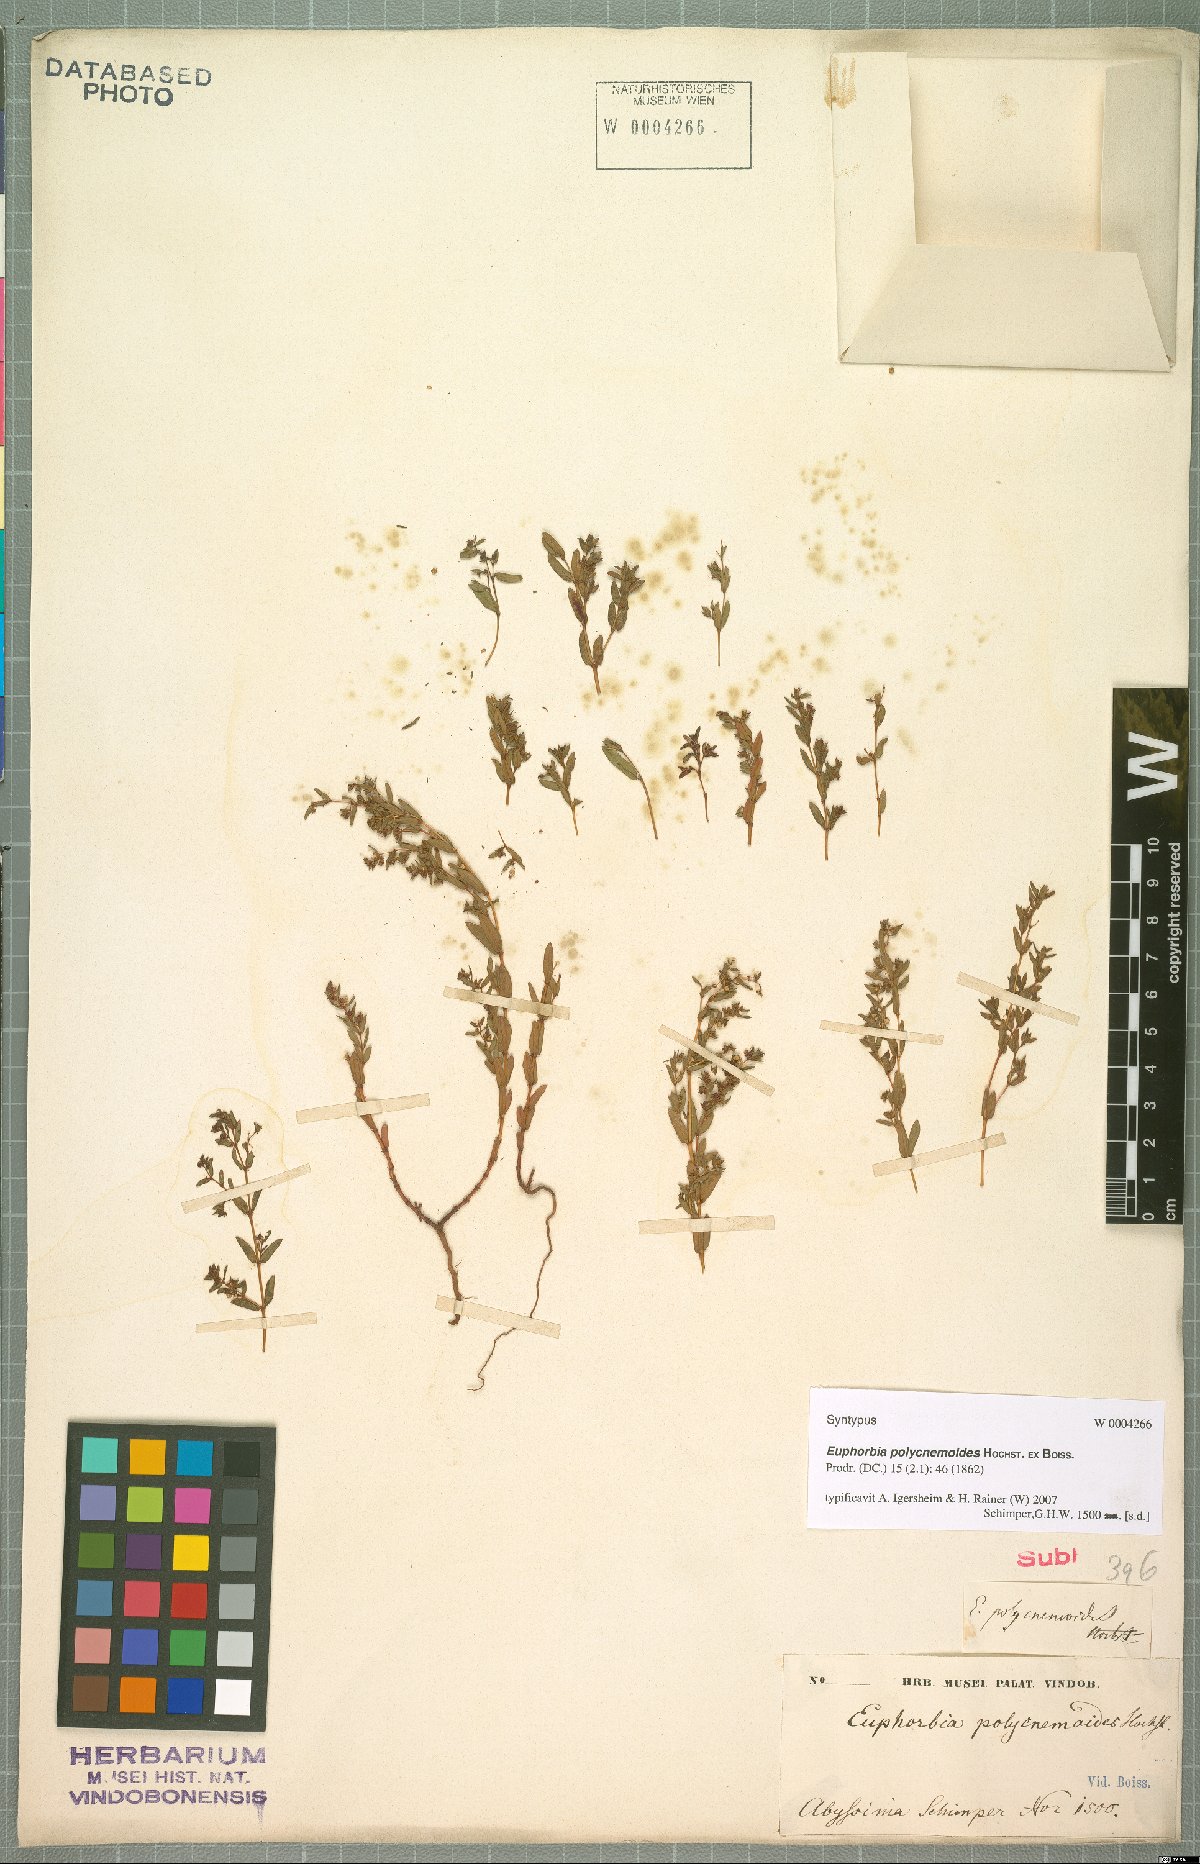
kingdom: Plantae
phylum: Tracheophyta
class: Magnoliopsida
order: Malpighiales
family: Euphorbiaceae
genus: Euphorbia
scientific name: Euphorbia polycnemoides
